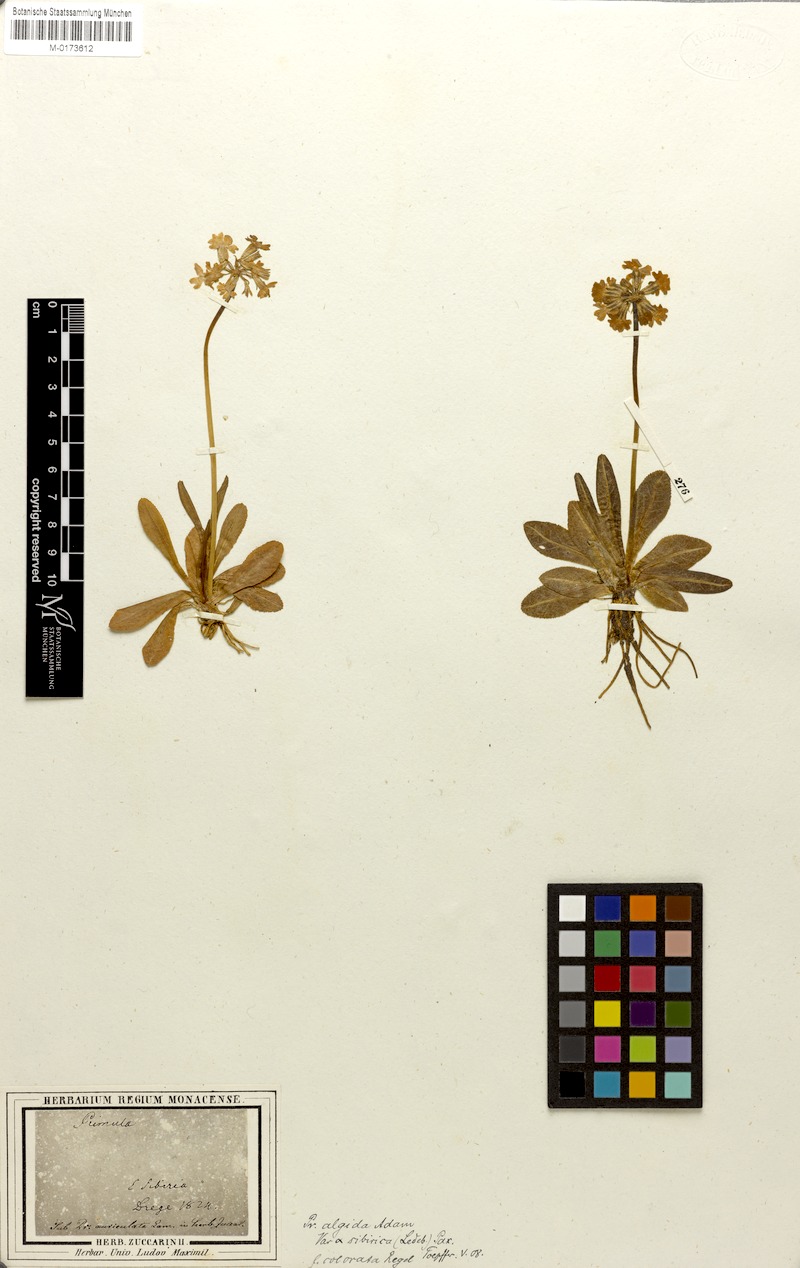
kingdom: Plantae
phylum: Tracheophyta
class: Magnoliopsida
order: Ericales
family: Primulaceae
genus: Primula
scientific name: Primula algida
